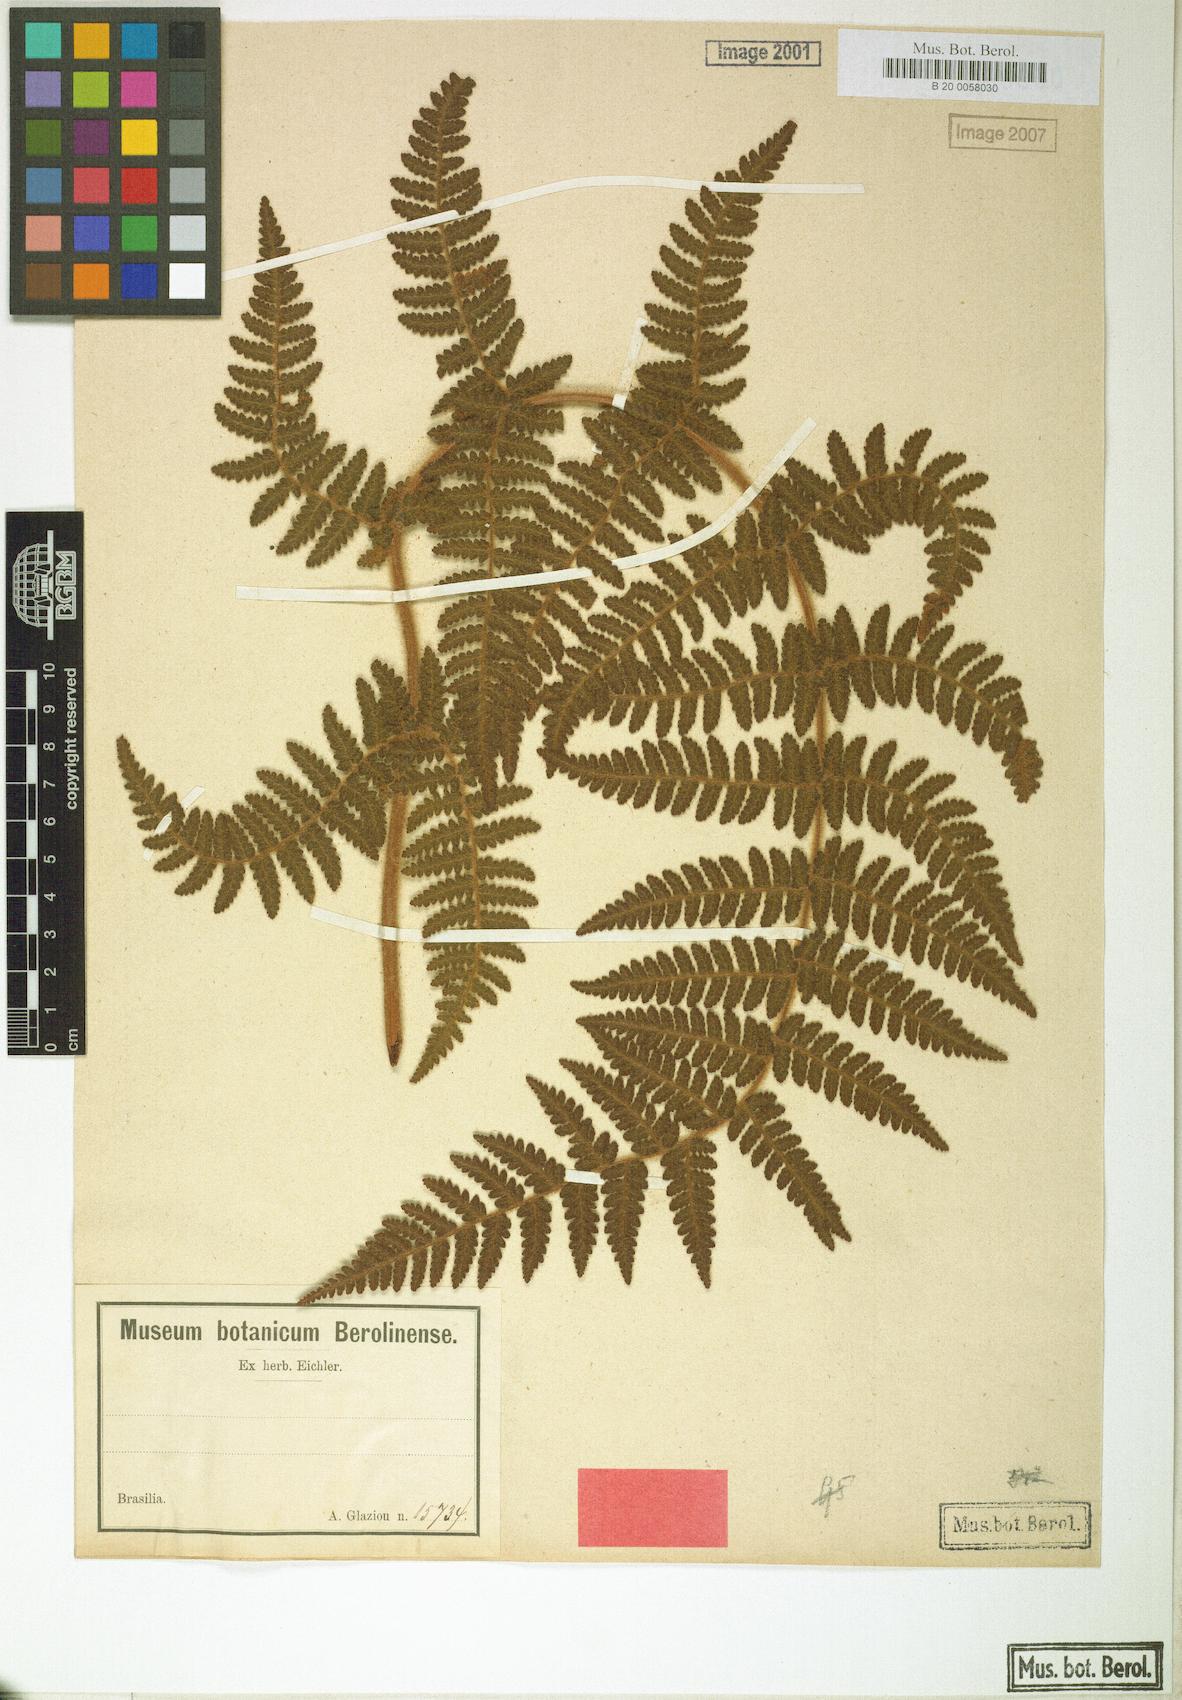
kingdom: Plantae
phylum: Tracheophyta
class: Polypodiopsida
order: Cyatheales
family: Cyatheaceae
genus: Cyathea
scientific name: Cyathea myriotricha
